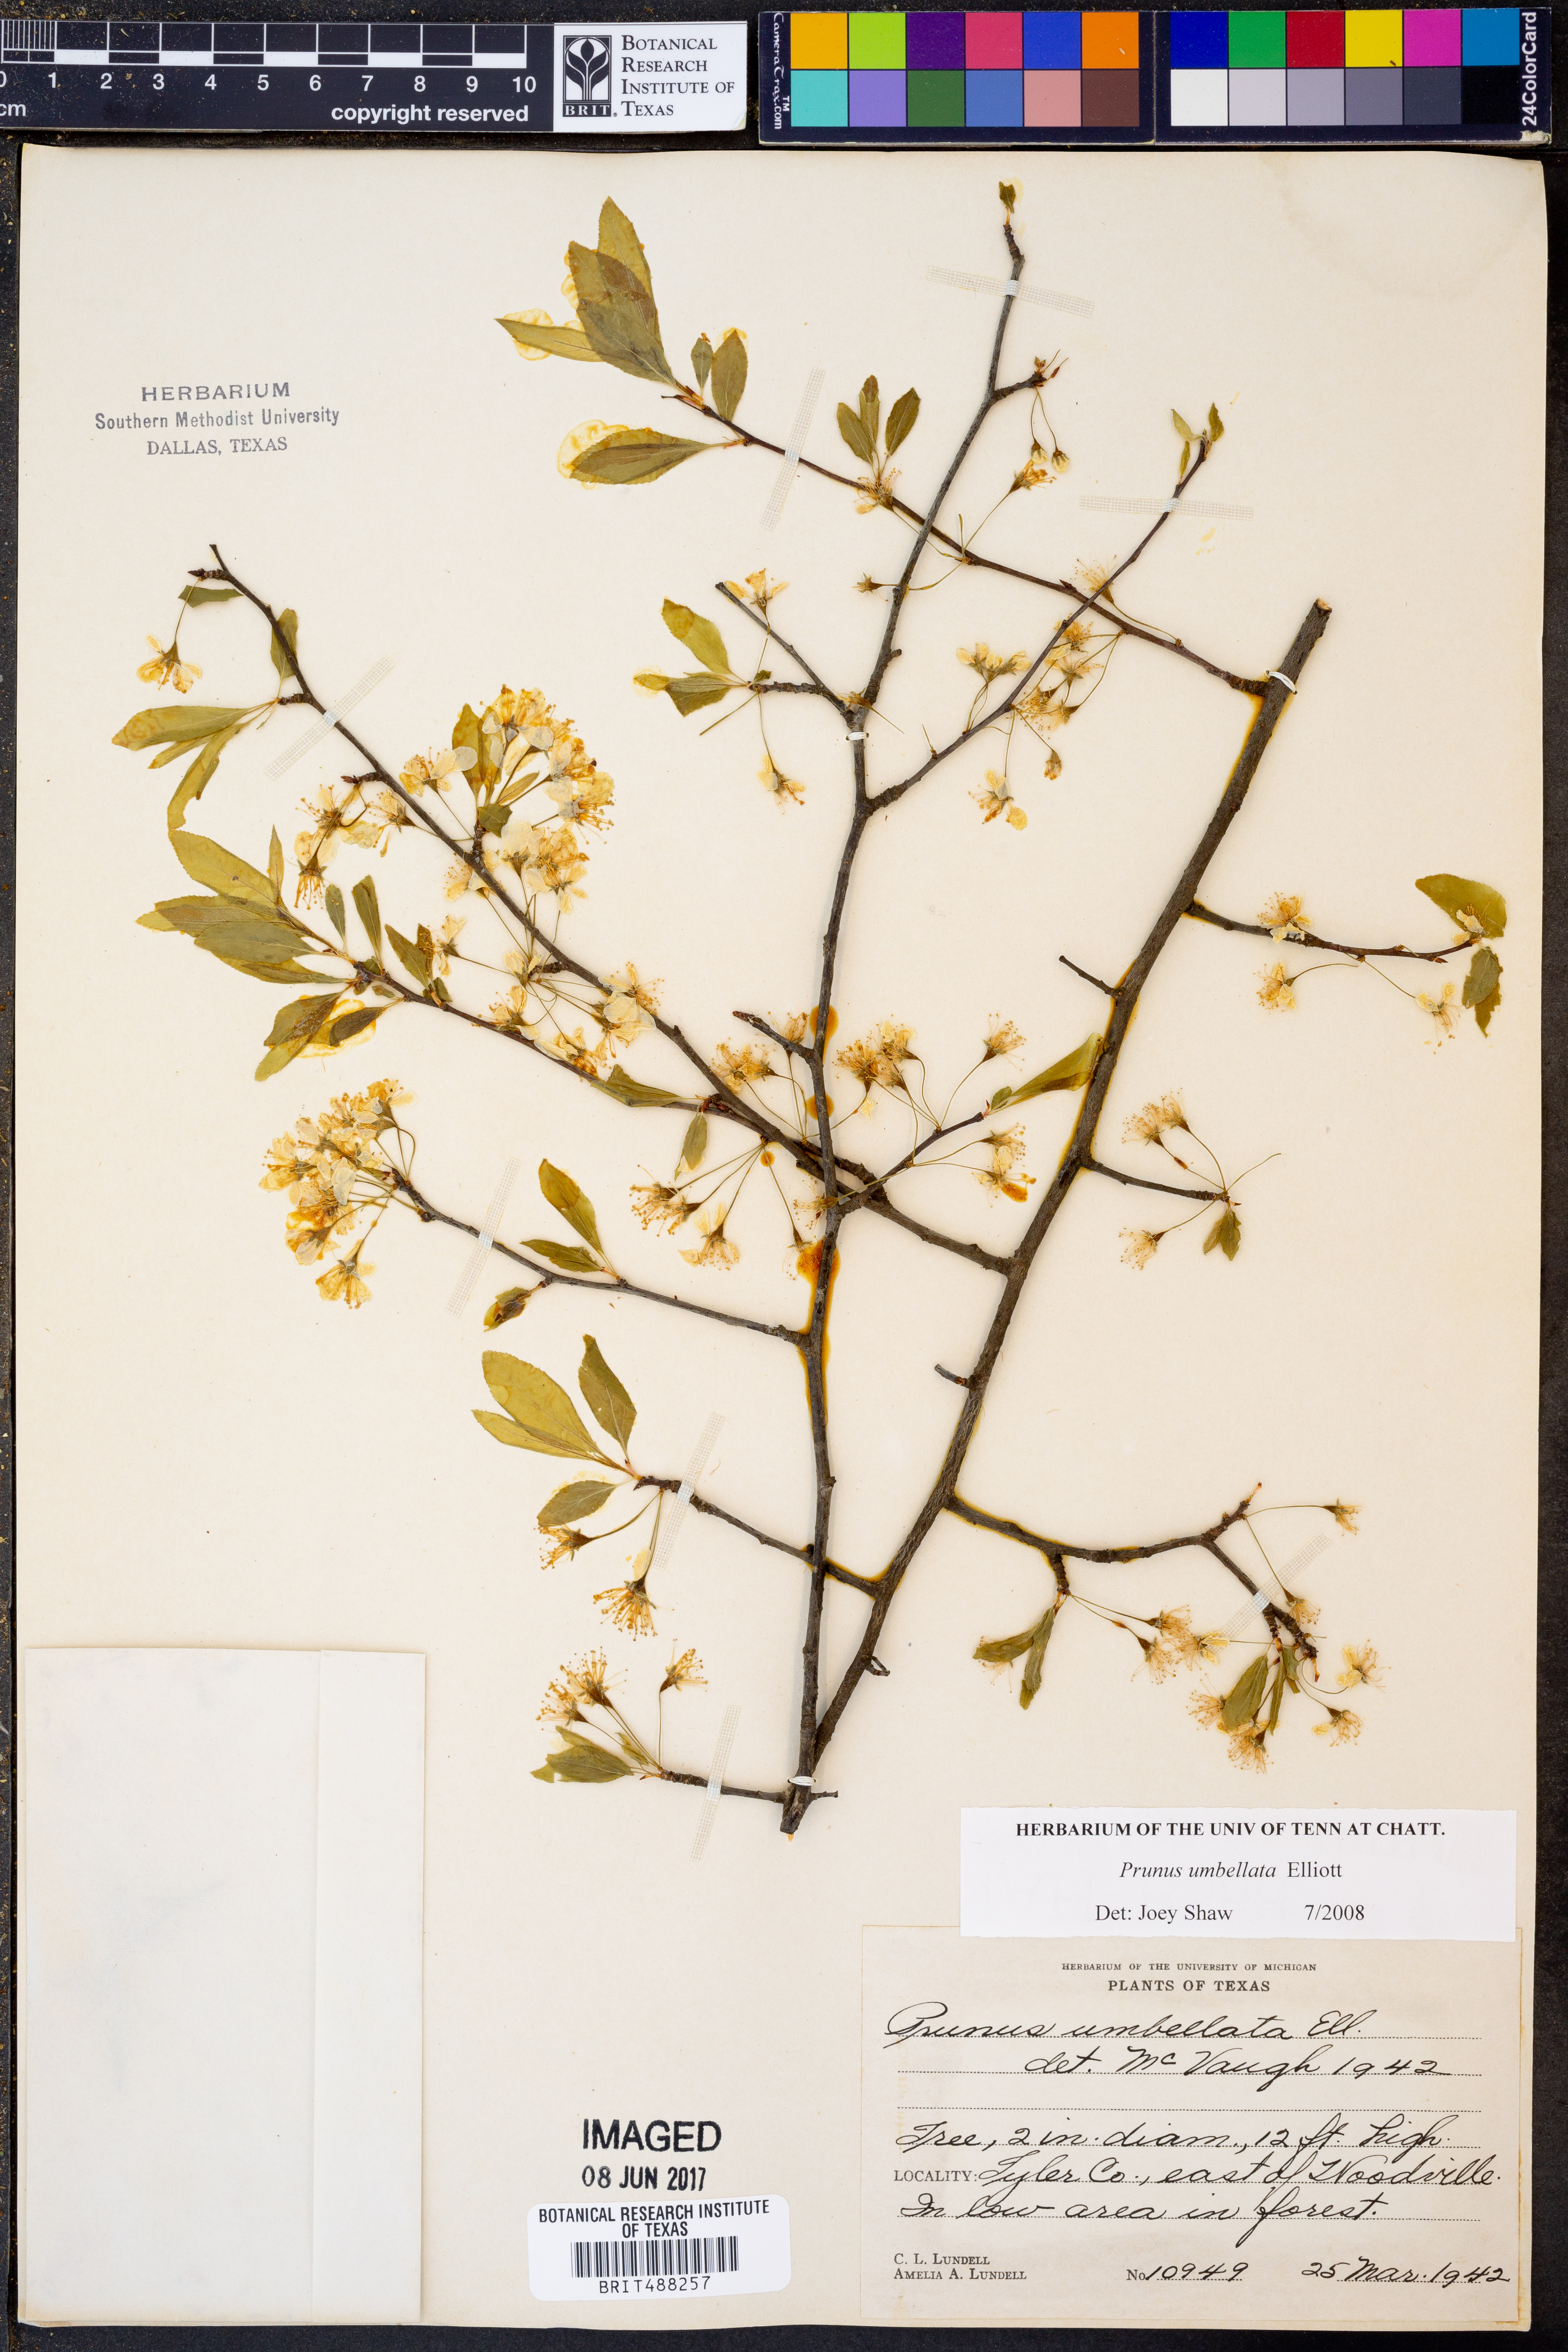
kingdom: Plantae
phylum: Tracheophyta
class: Magnoliopsida
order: Rosales
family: Rosaceae
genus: Prunus
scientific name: Prunus umbellata
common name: Allegheny plum
